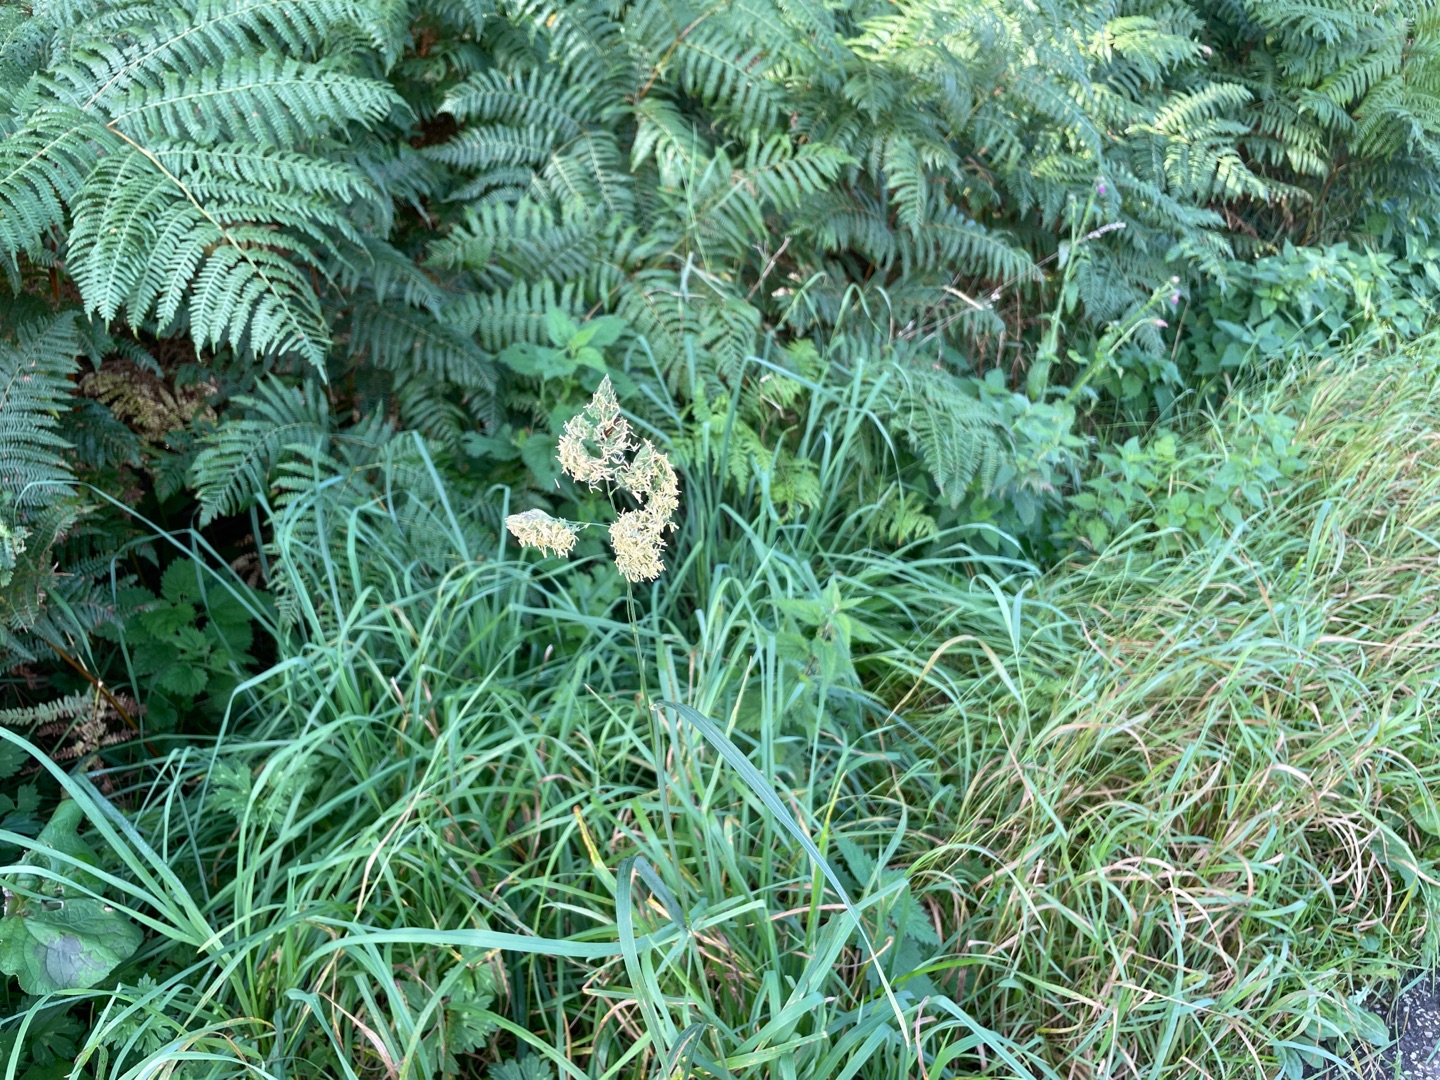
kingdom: Plantae
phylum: Tracheophyta
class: Liliopsida
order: Poales
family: Poaceae
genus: Dactylis
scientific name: Dactylis glomerata
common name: Almindelig hundegræs
